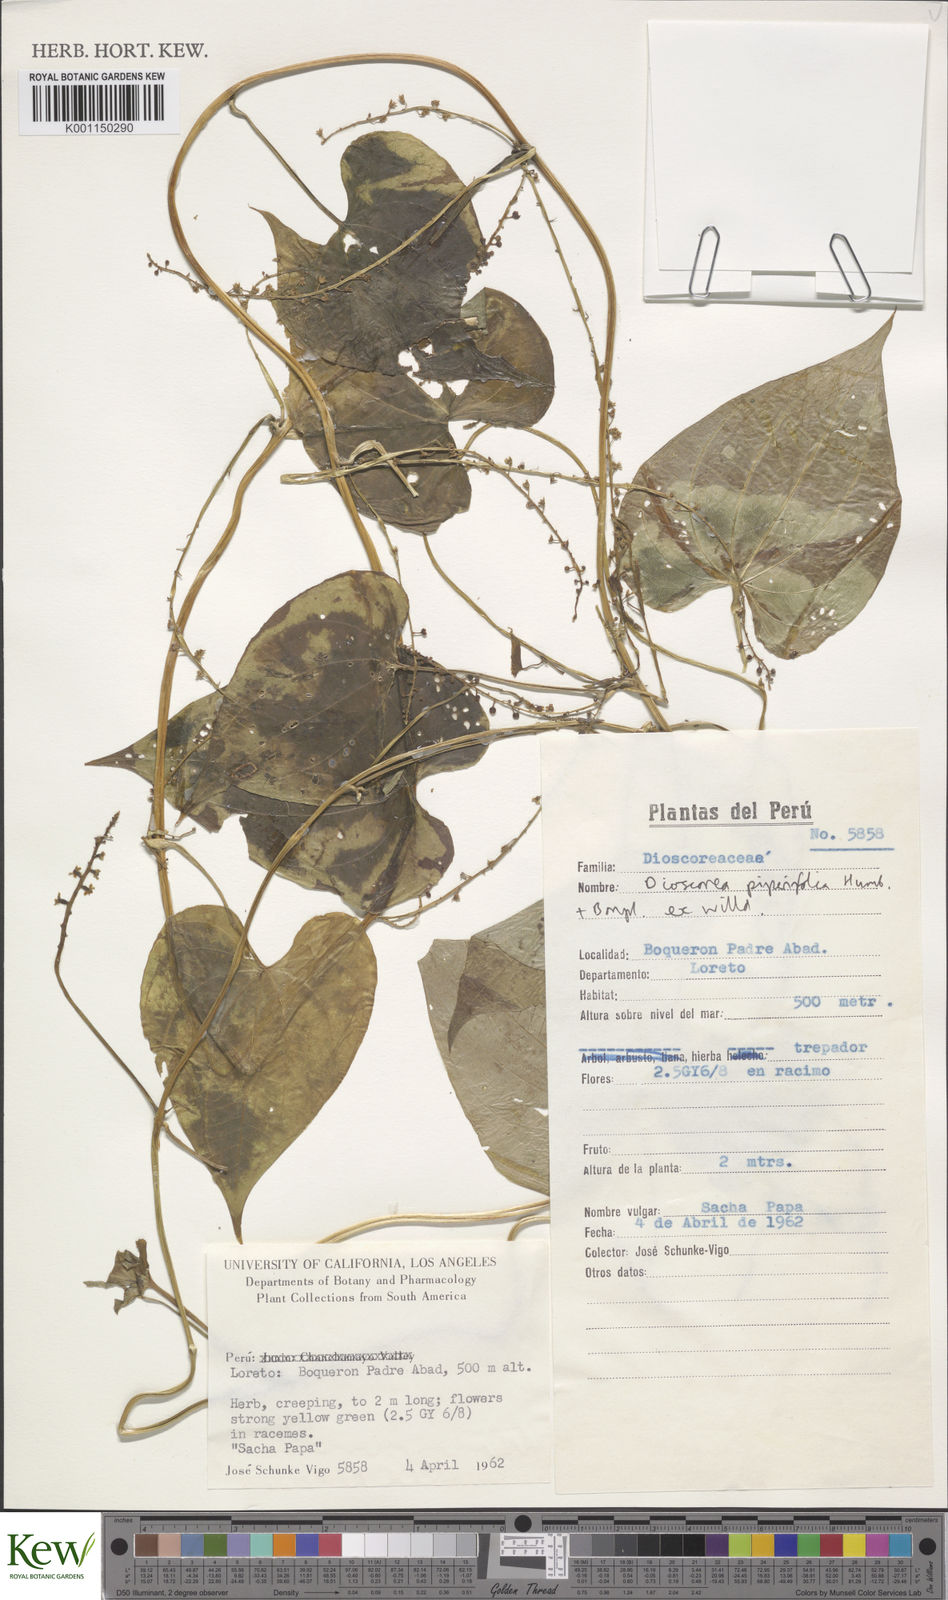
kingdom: Plantae
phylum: Tracheophyta
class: Liliopsida
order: Dioscoreales
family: Dioscoreaceae
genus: Dioscorea
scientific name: Dioscorea piperifolia
